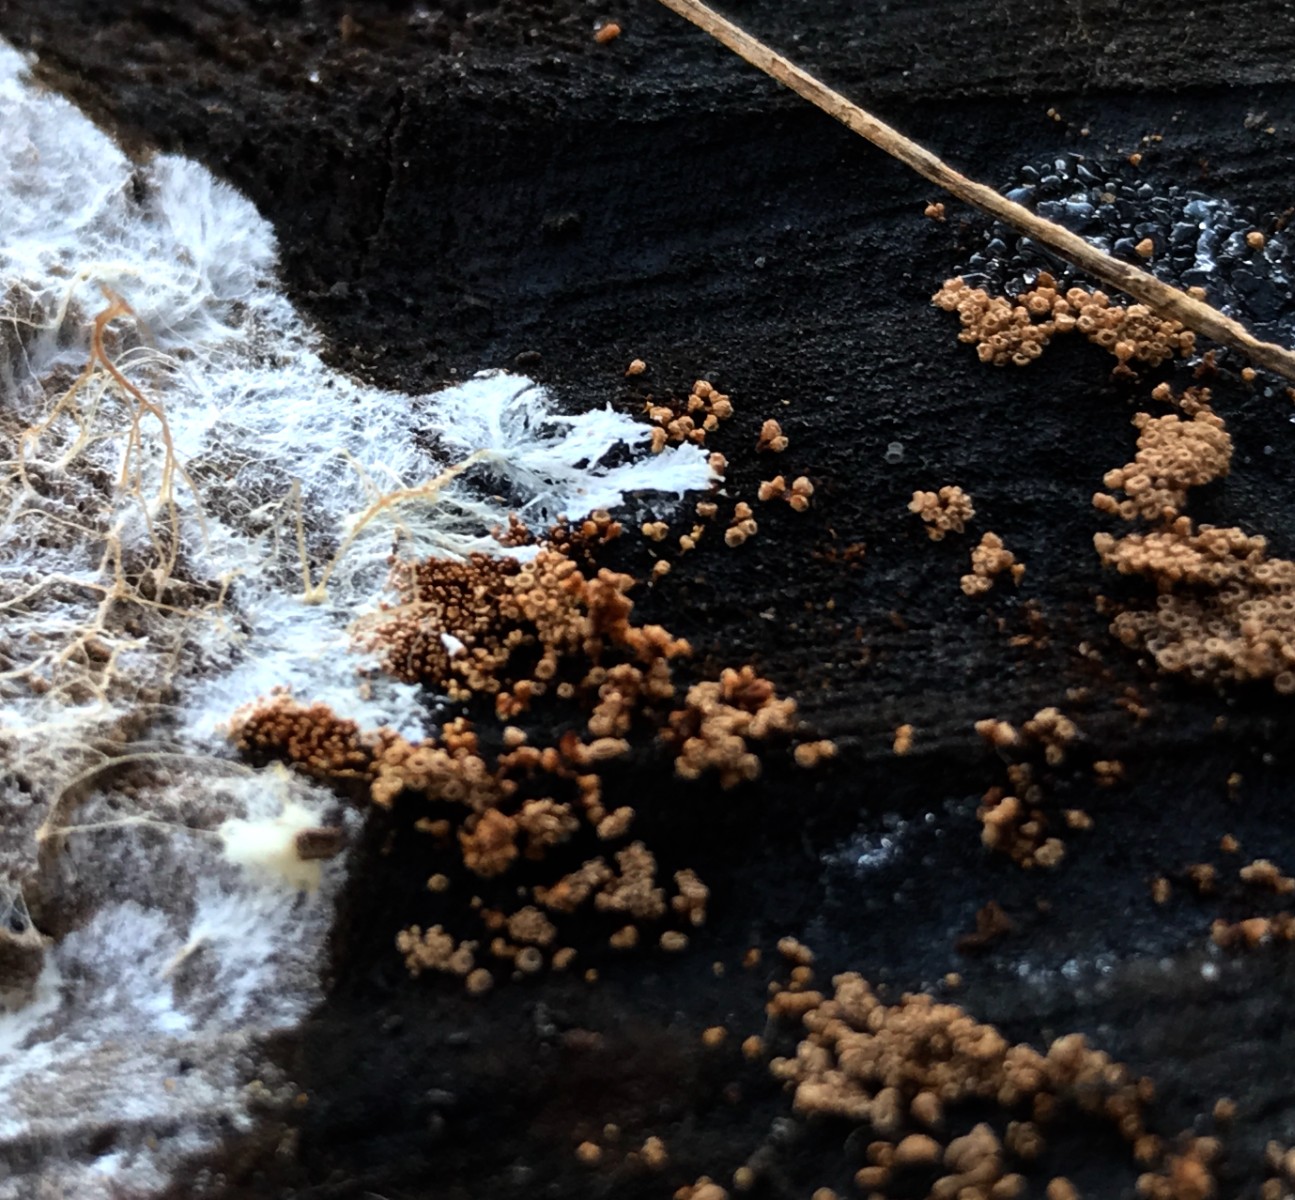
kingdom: Fungi
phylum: Basidiomycota
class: Agaricomycetes
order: Agaricales
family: Niaceae
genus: Merismodes
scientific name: Merismodes anomala
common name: almindelig læderskål
